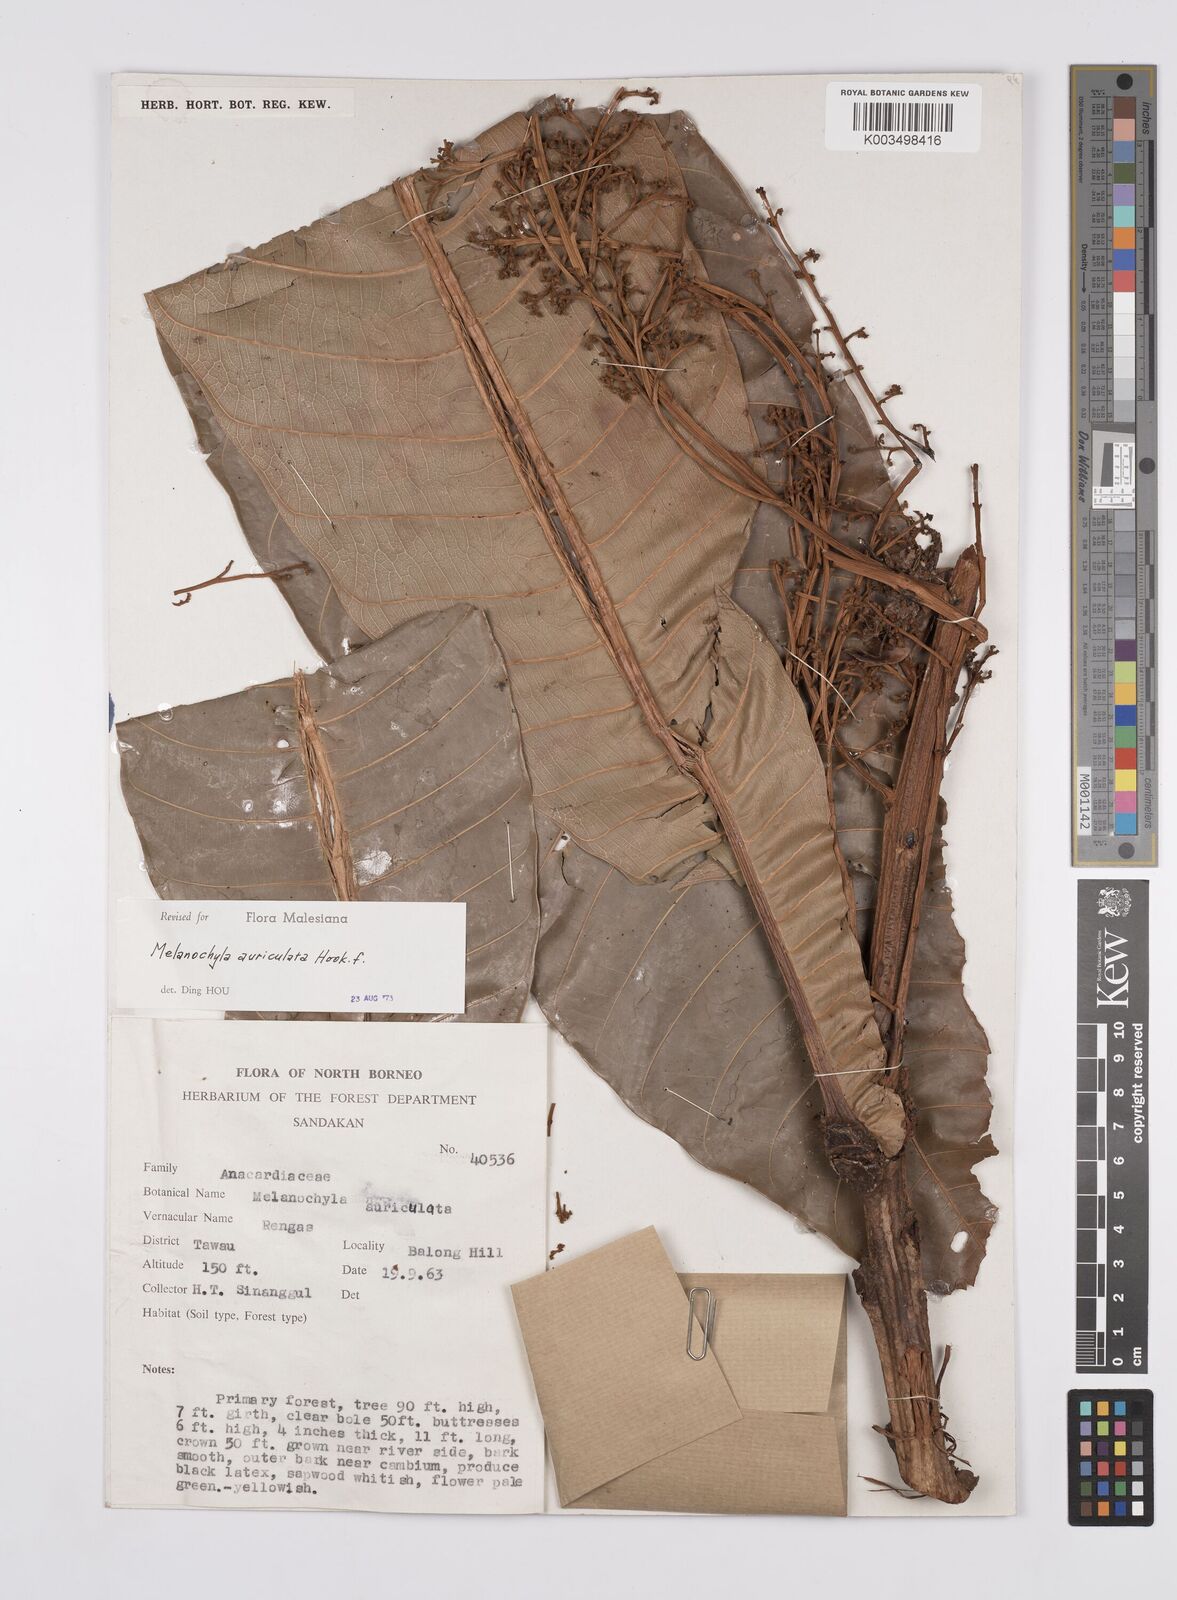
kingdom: Plantae
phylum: Tracheophyta
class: Magnoliopsida
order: Sapindales
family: Anacardiaceae
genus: Melanochyla
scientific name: Melanochyla auriculata
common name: Swamp rengas
